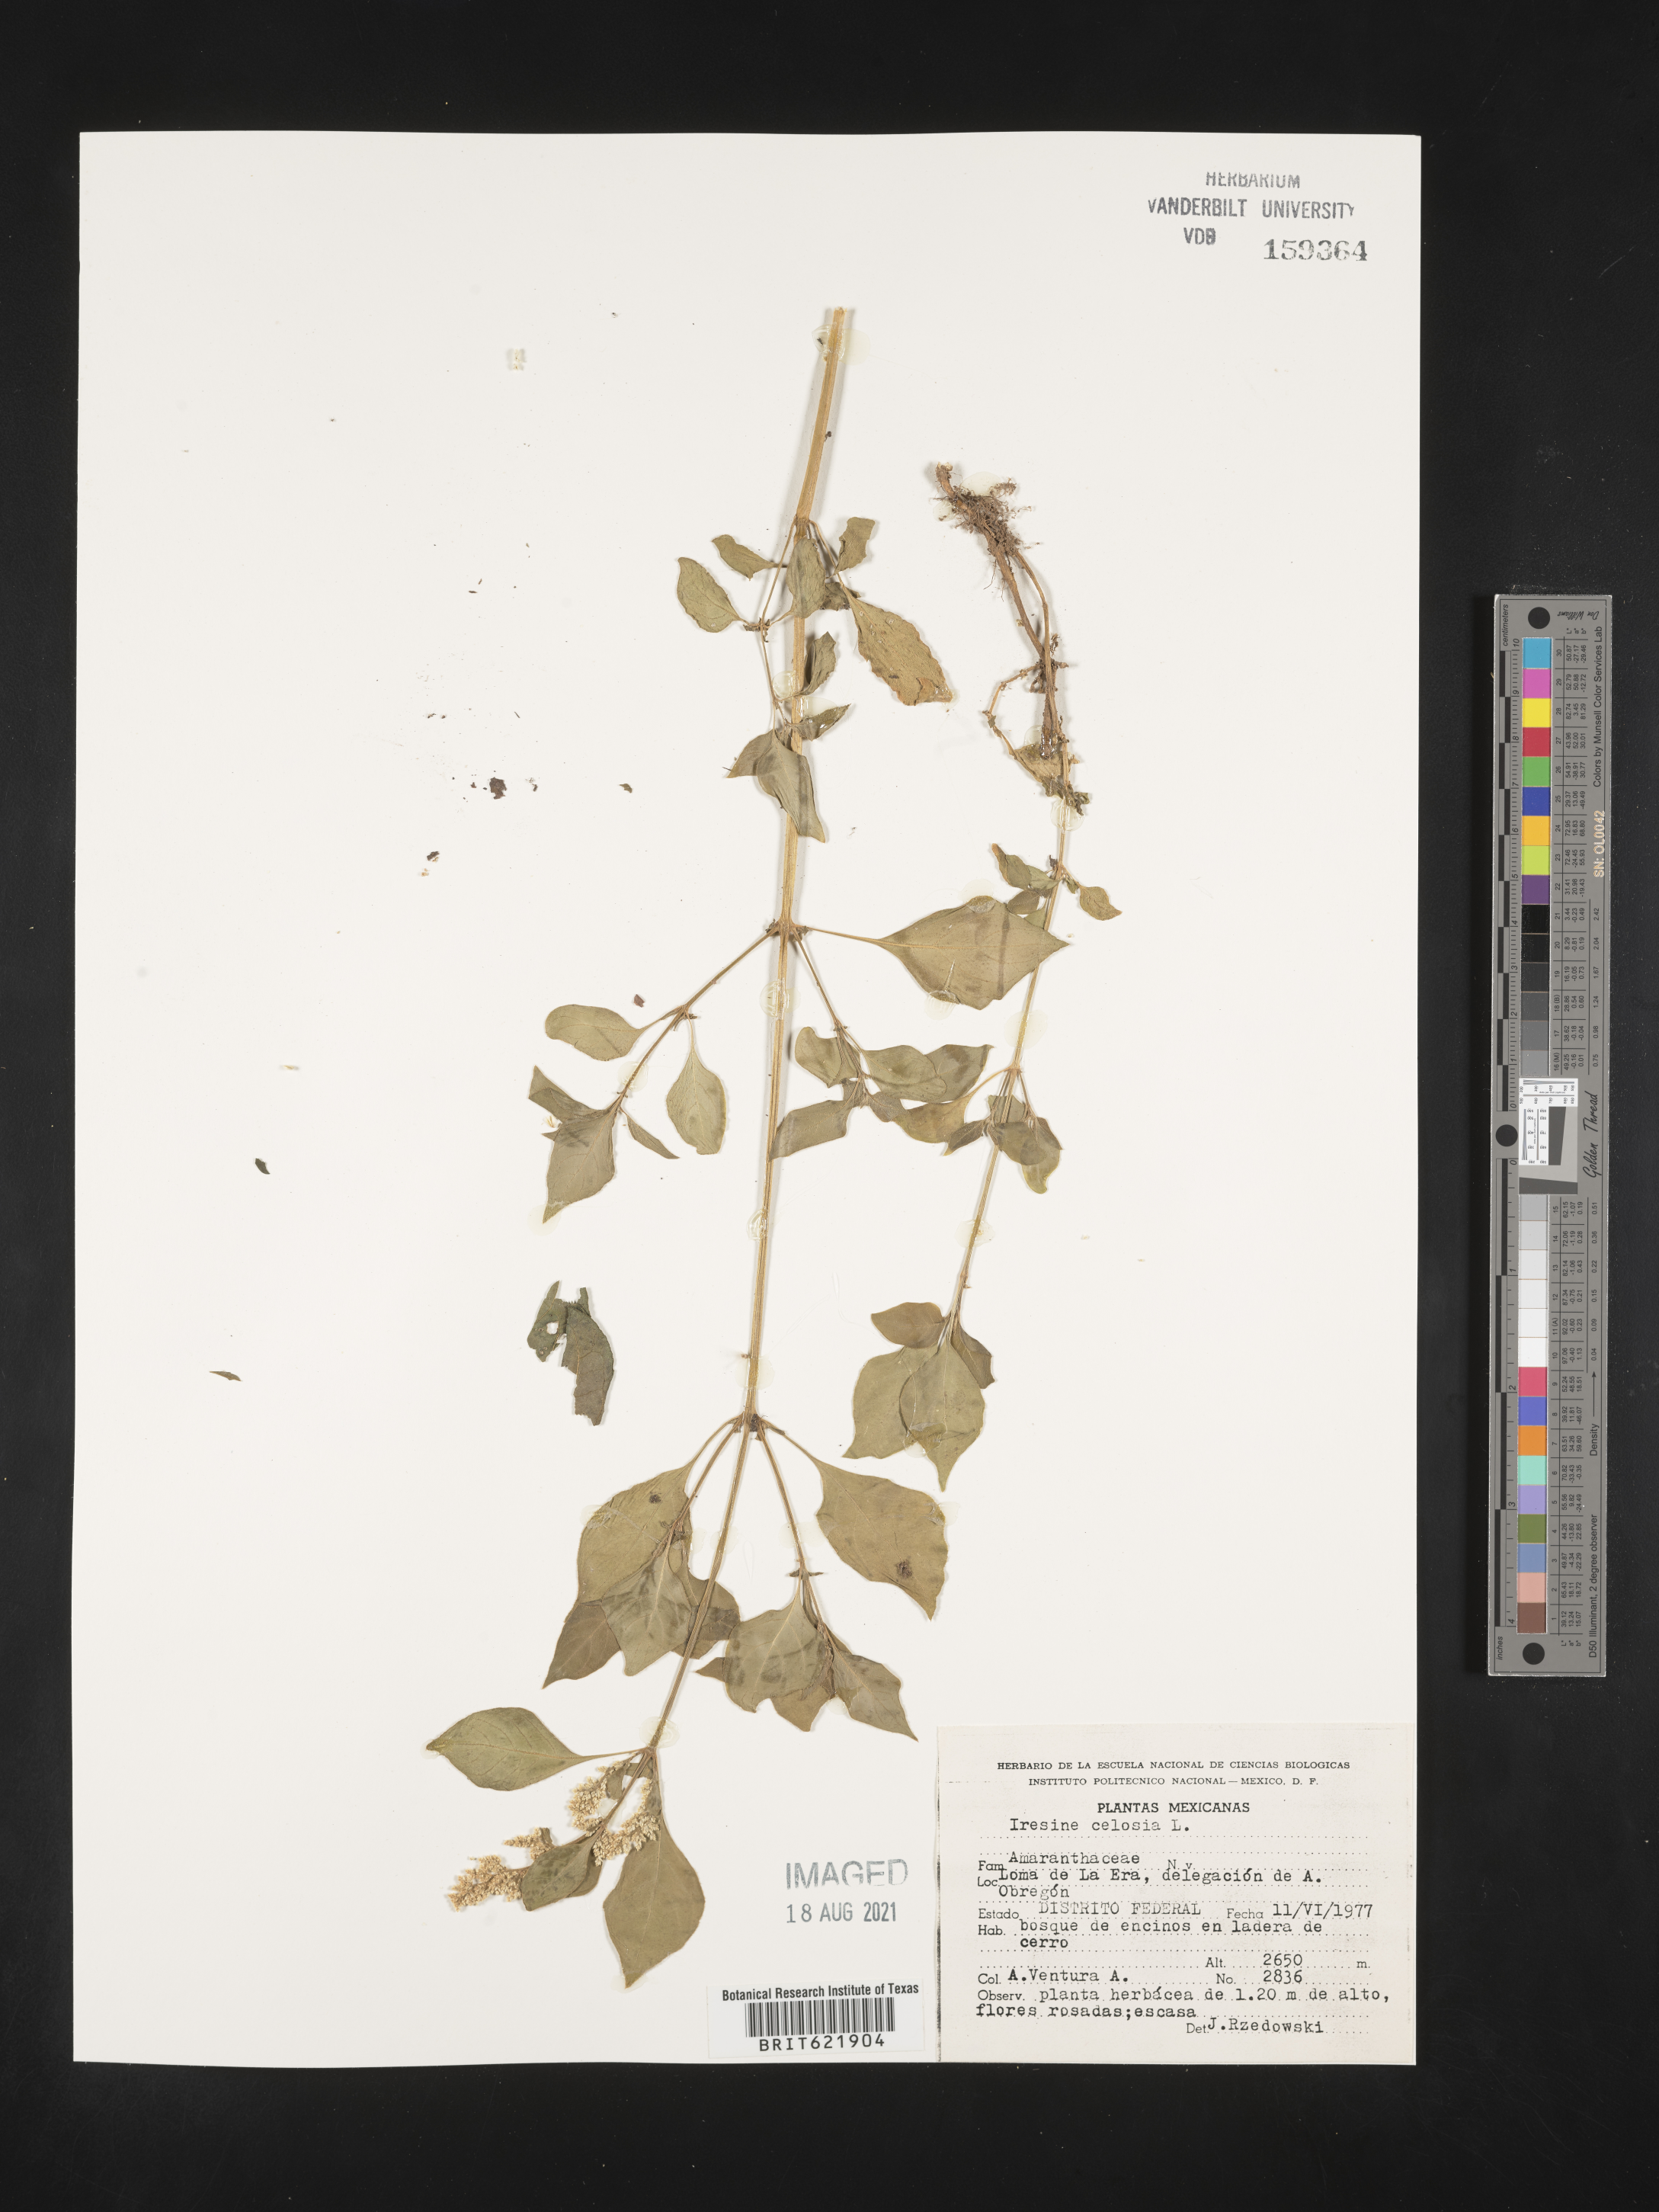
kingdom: Plantae
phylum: Tracheophyta
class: Magnoliopsida
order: Caryophyllales
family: Amaranthaceae
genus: Iresine
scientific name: Iresine
